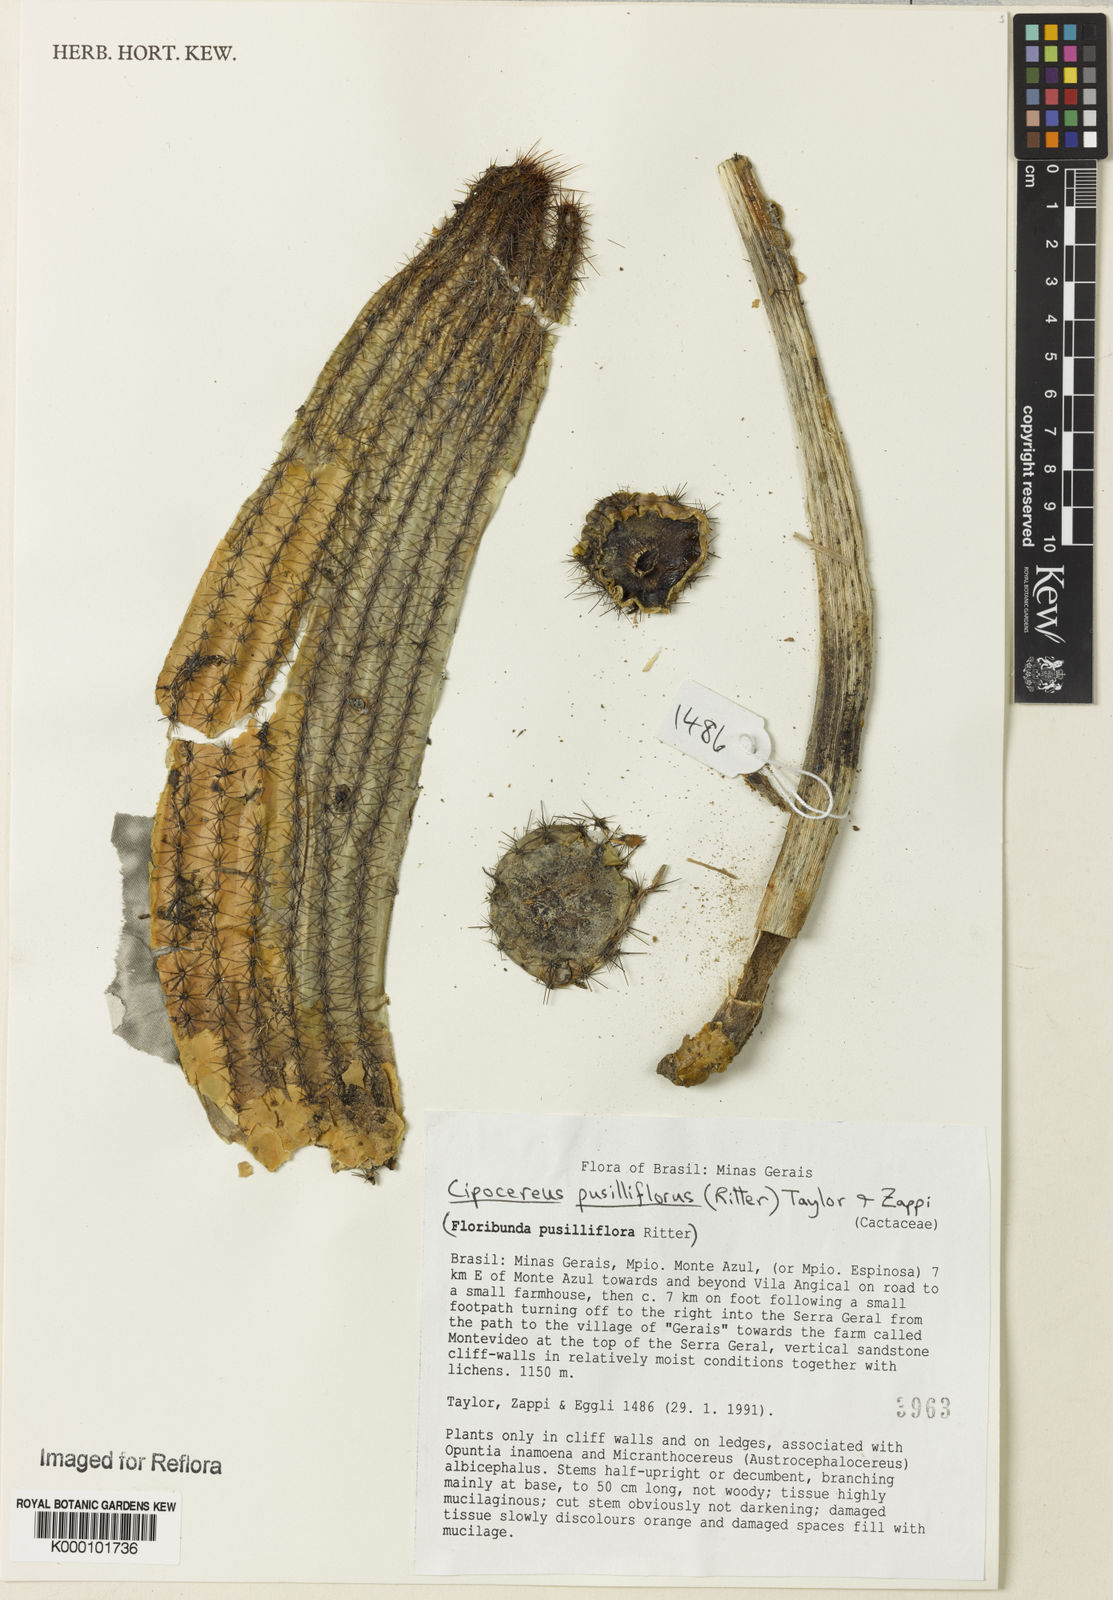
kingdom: Plantae
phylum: Tracheophyta
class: Magnoliopsida
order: Caryophyllales
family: Cactaceae
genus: Cipocereus
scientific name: Cipocereus pusilliflorus
